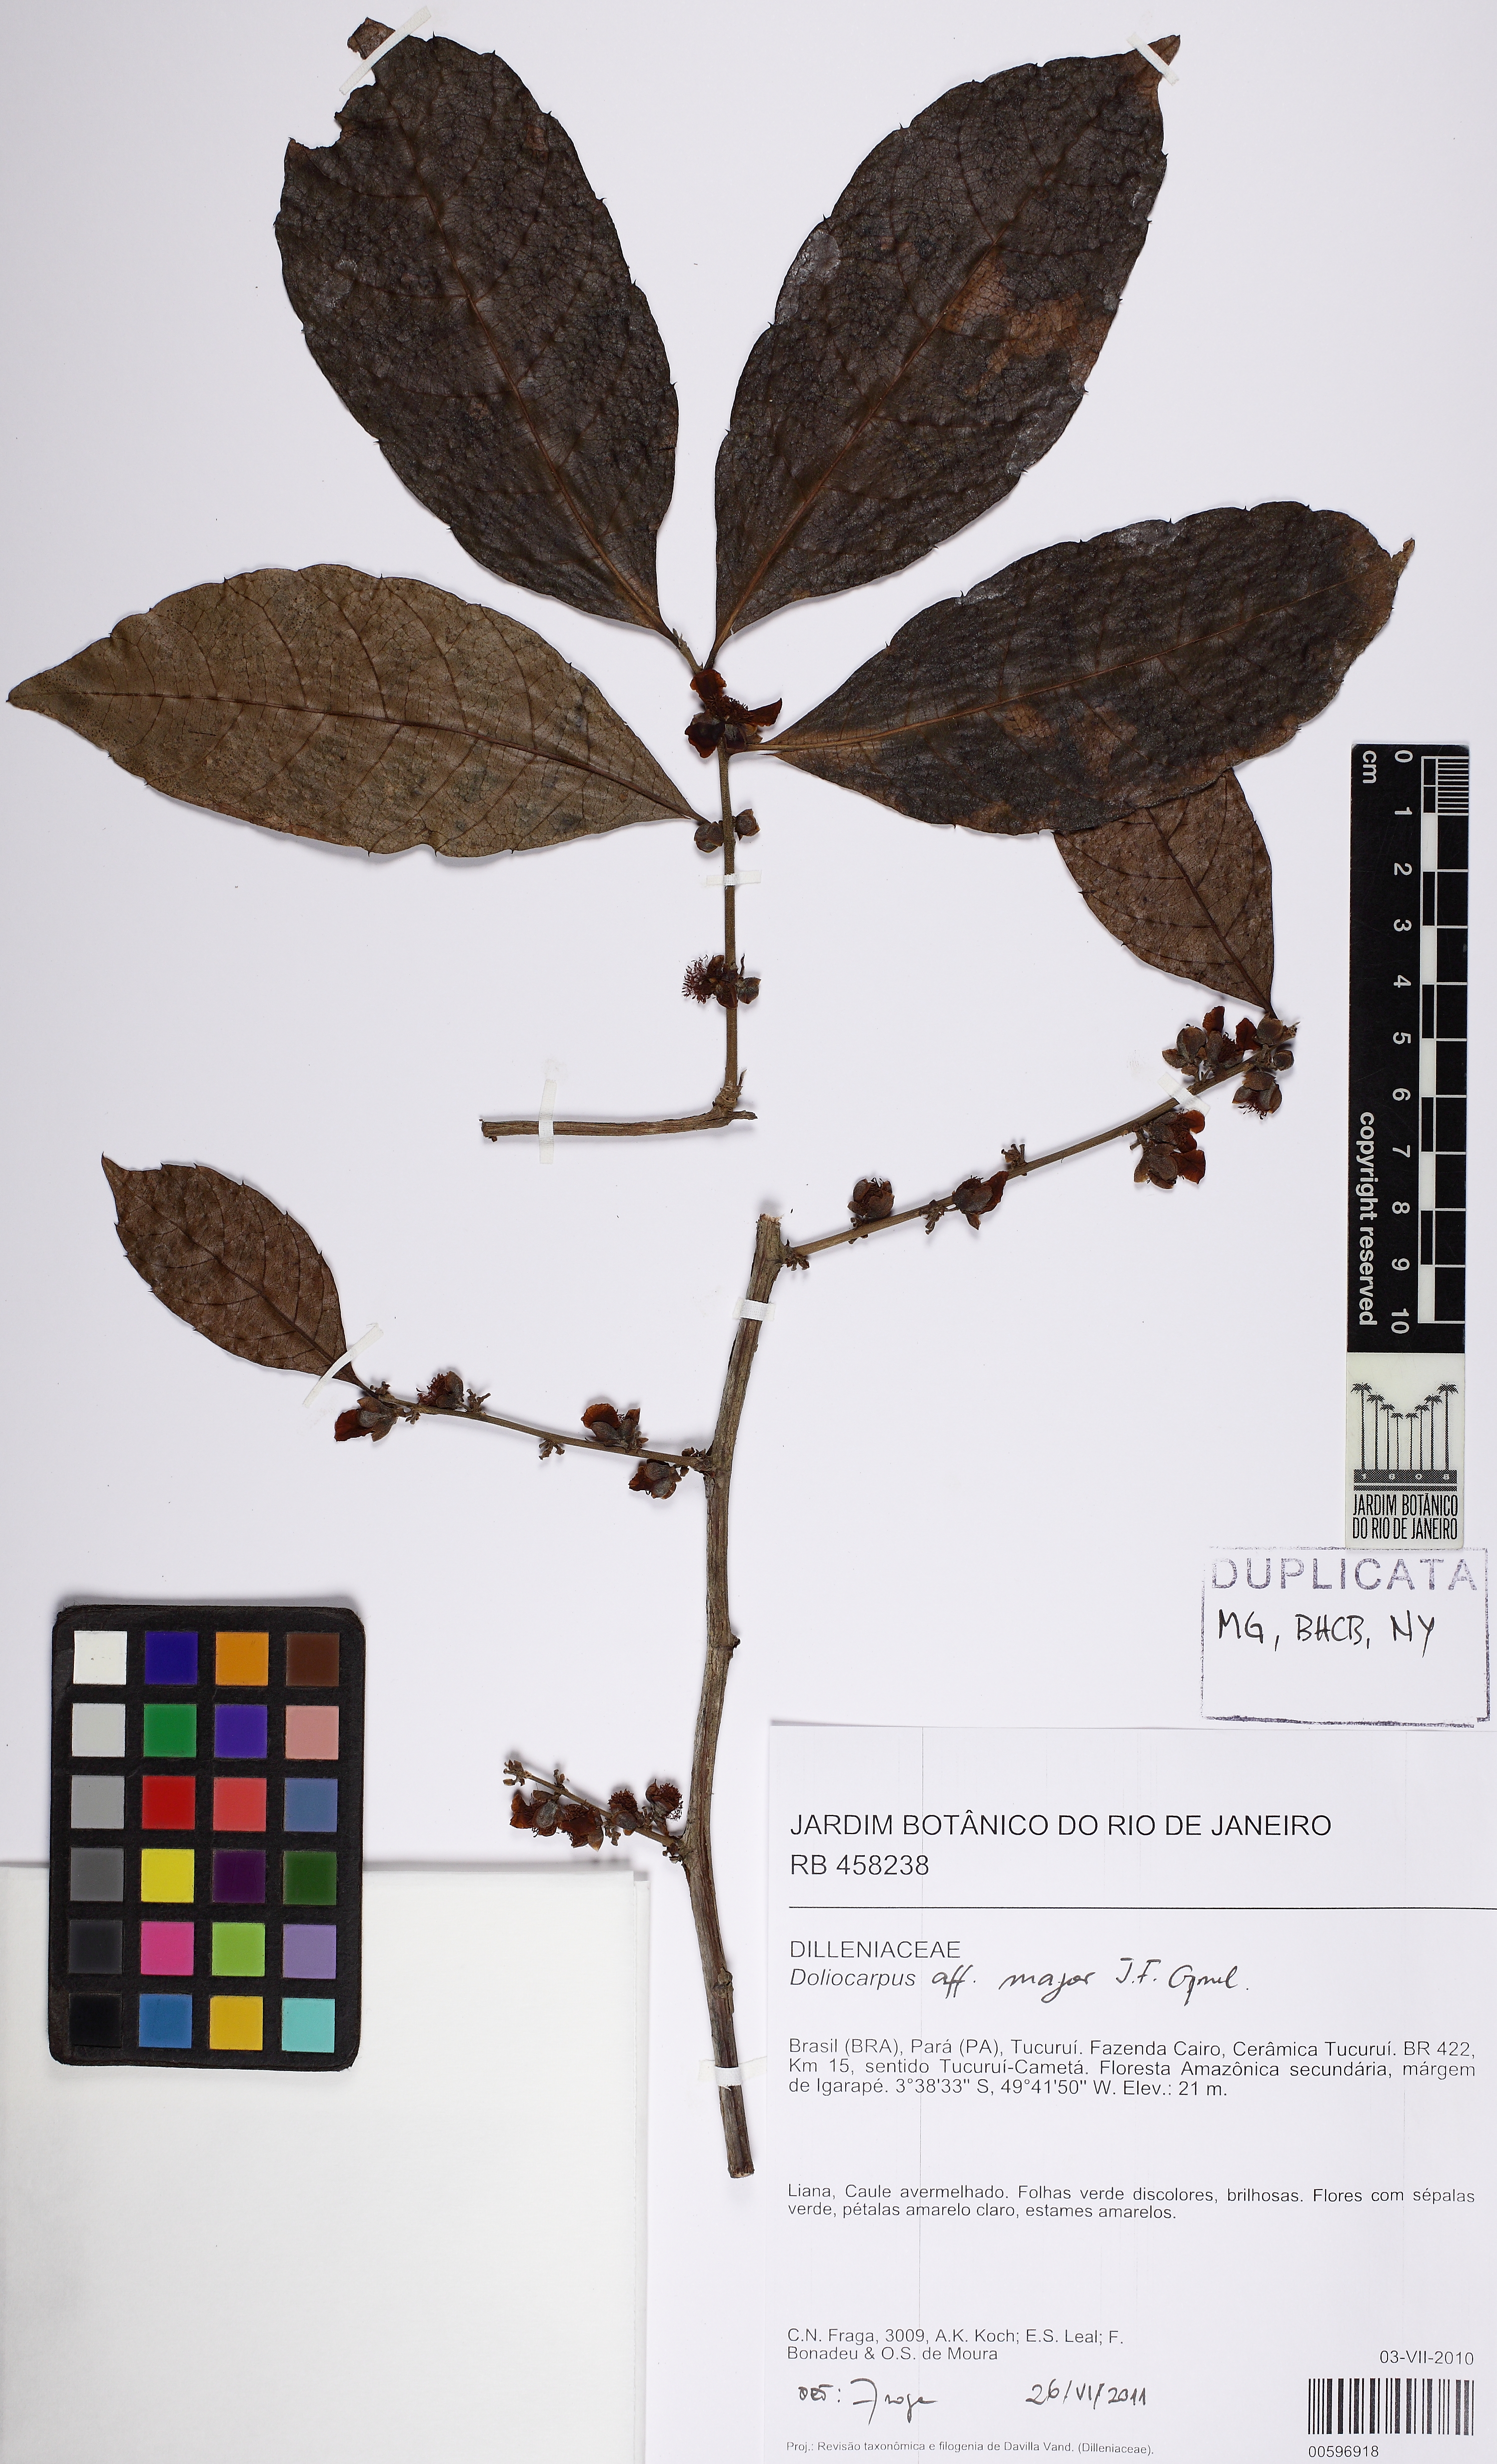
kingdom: Plantae
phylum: Tracheophyta
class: Magnoliopsida
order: Dilleniales
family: Dilleniaceae
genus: Doliocarpus
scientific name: Doliocarpus major
